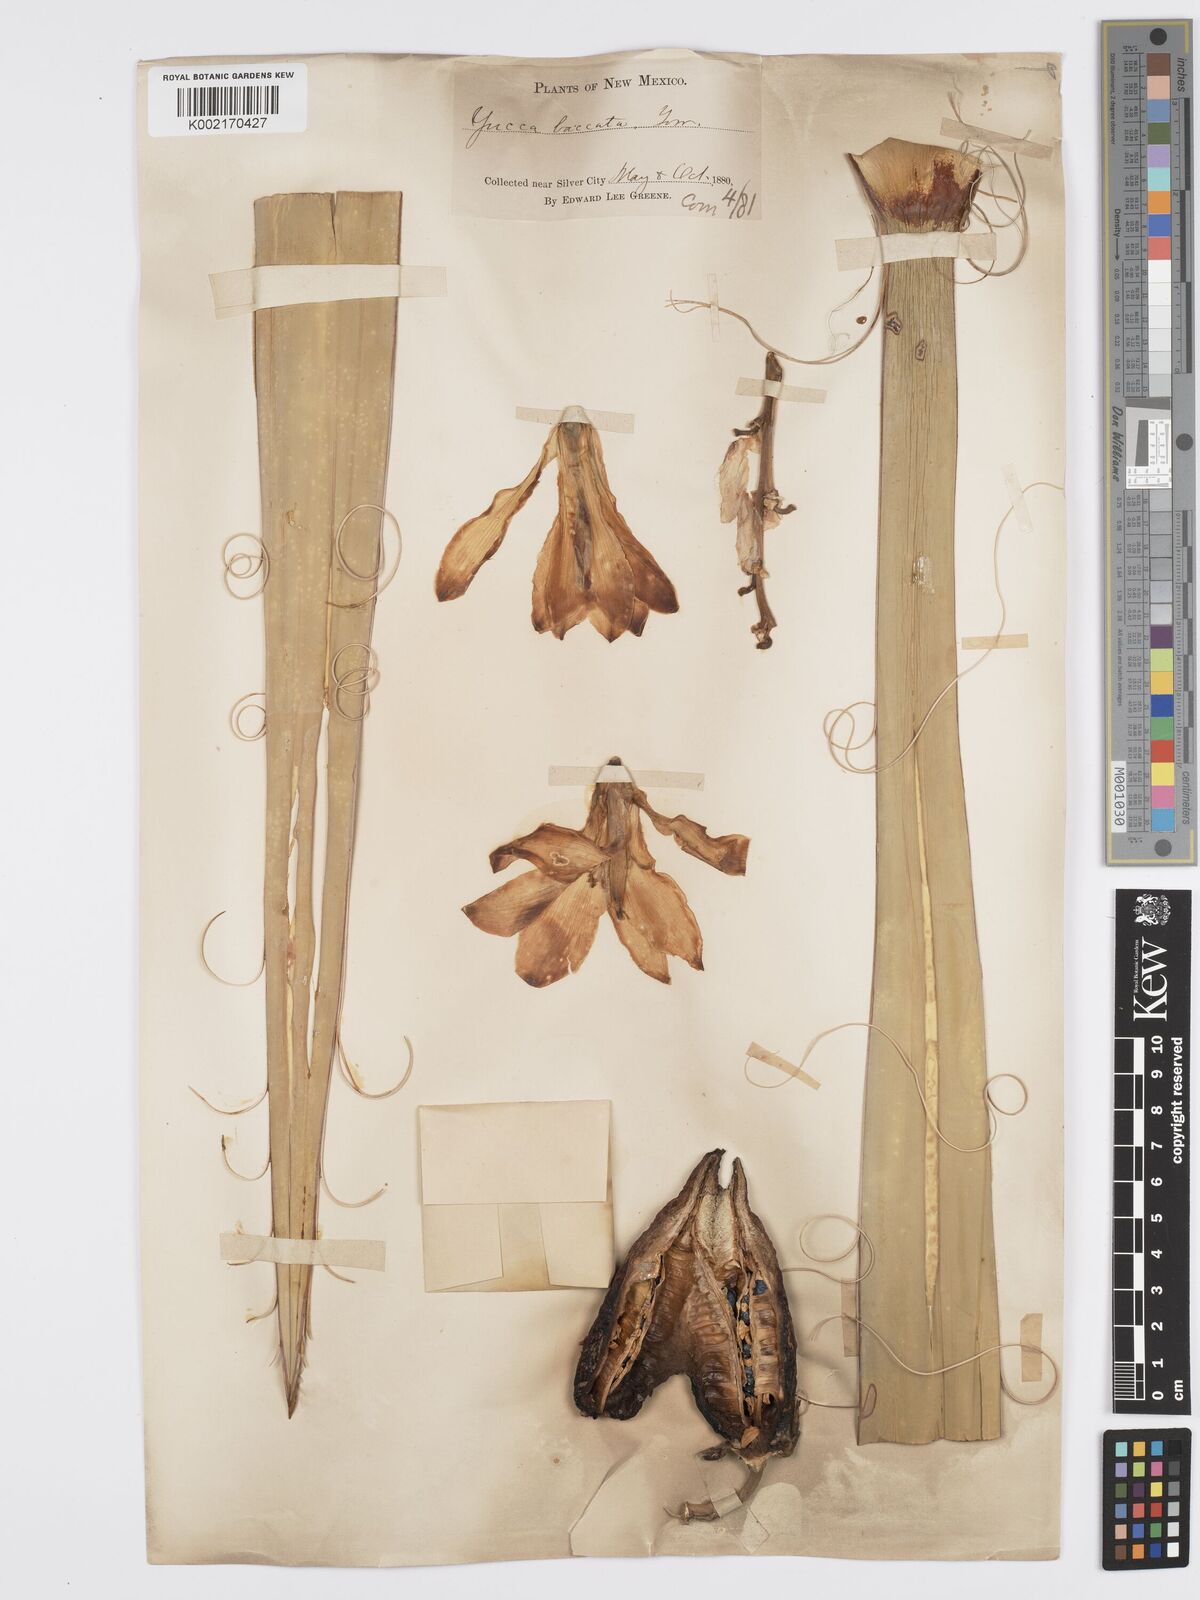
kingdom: Plantae
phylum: Tracheophyta
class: Liliopsida
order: Asparagales
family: Asparagaceae
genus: Yucca
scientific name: Yucca baccata
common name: Banana yucca
